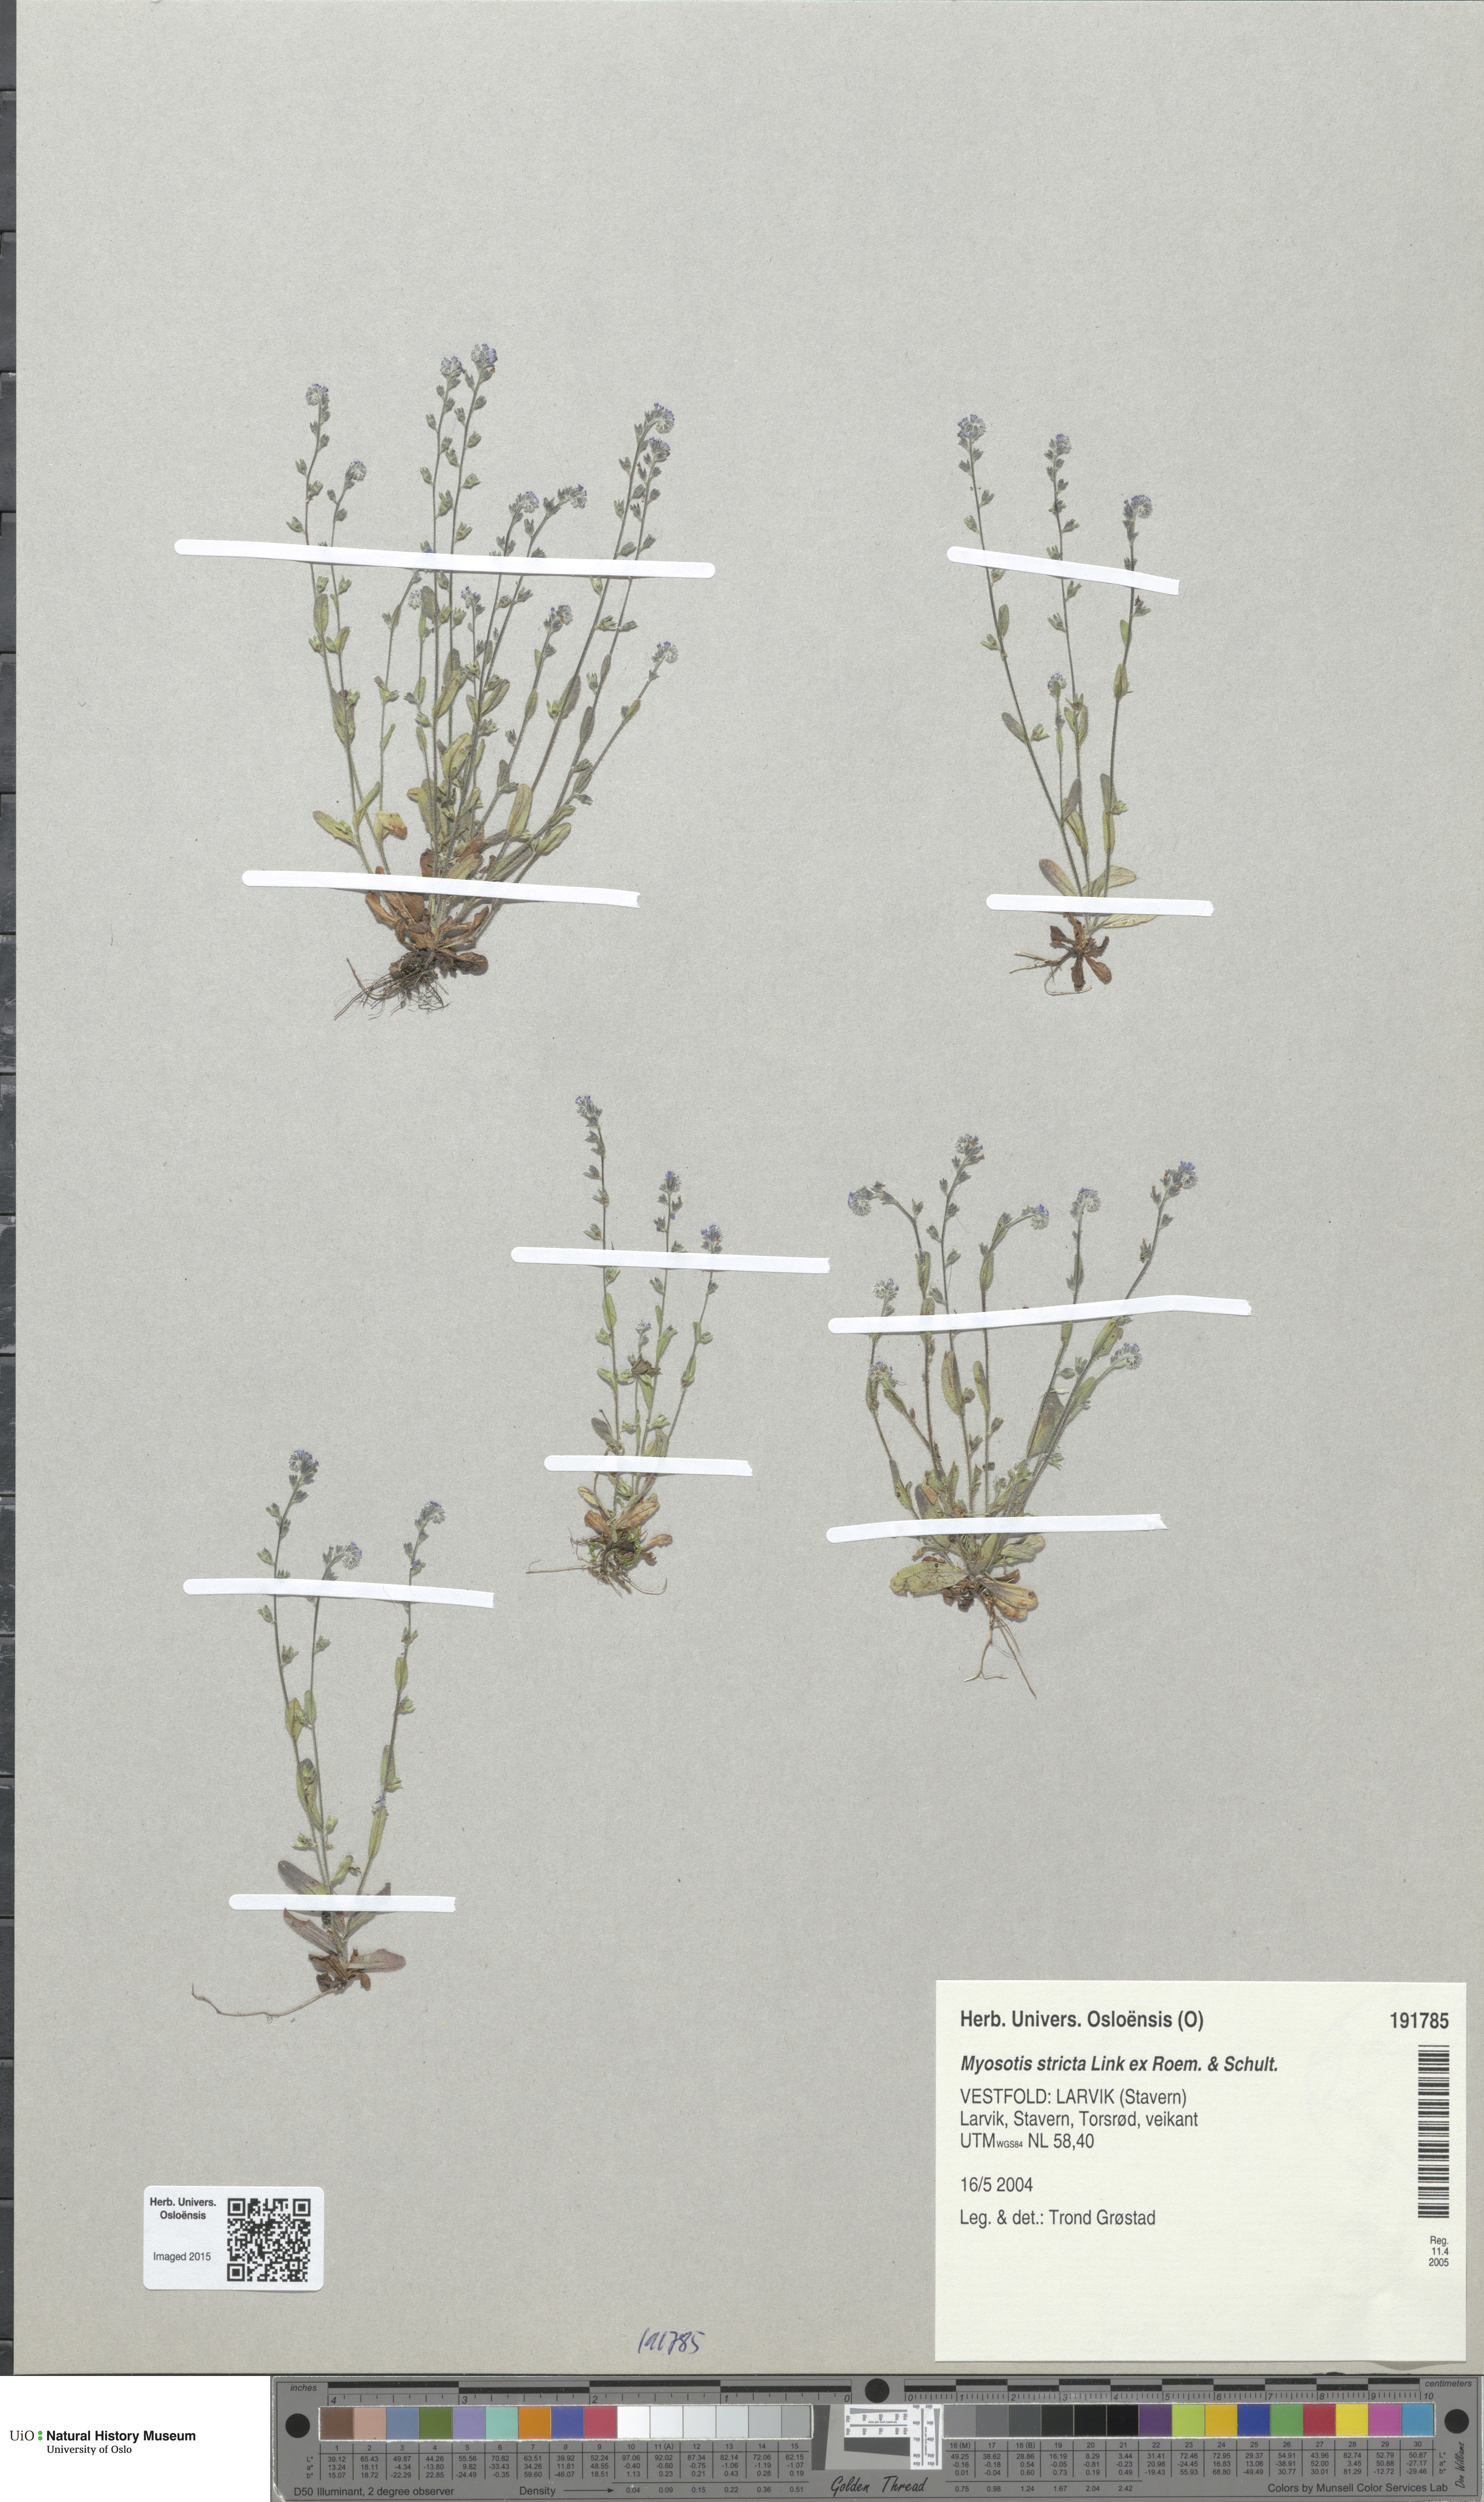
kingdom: Plantae
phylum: Tracheophyta
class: Magnoliopsida
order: Boraginales
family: Boraginaceae
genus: Myosotis
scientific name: Myosotis stricta
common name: Strict forget-me-not
